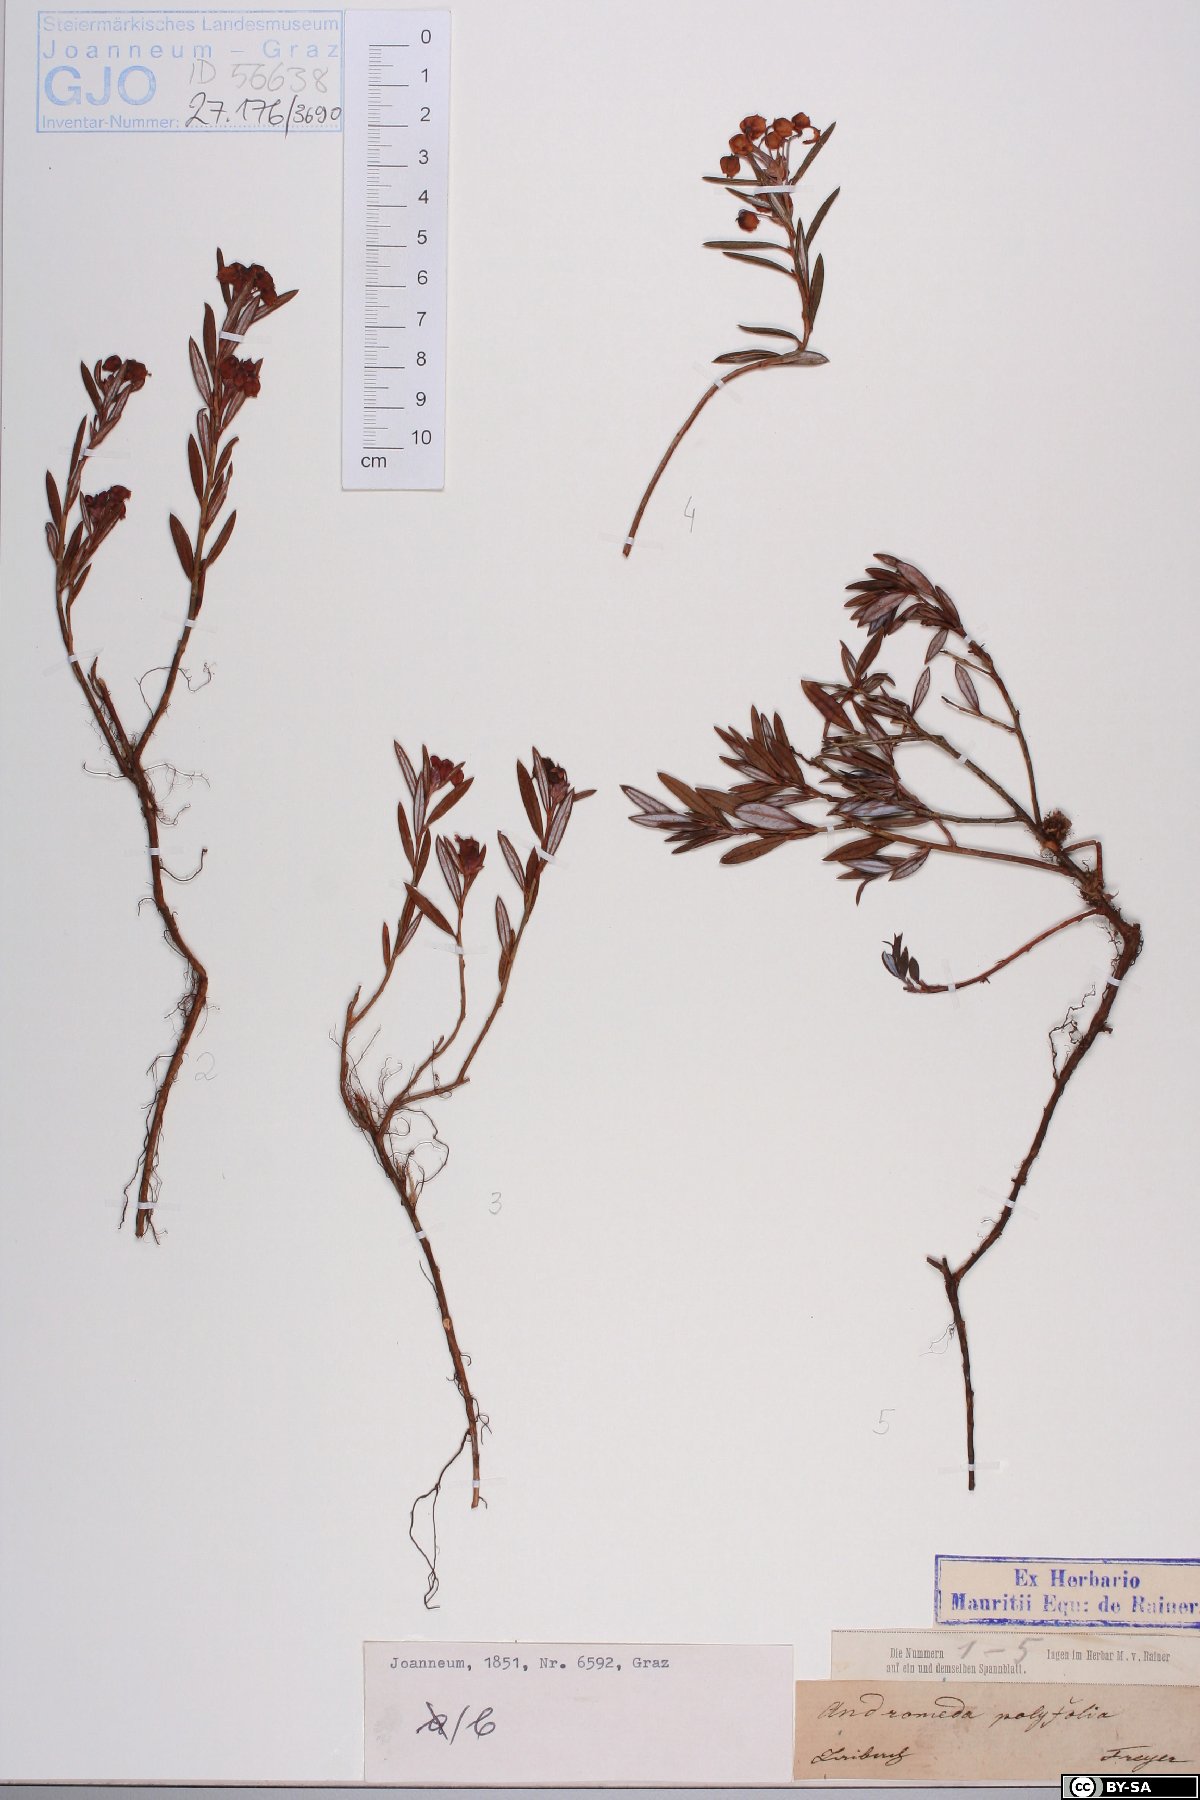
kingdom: Plantae
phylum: Tracheophyta
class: Magnoliopsida
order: Ericales
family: Ericaceae
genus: Andromeda
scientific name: Andromeda polifolia
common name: Bog-rosemary
